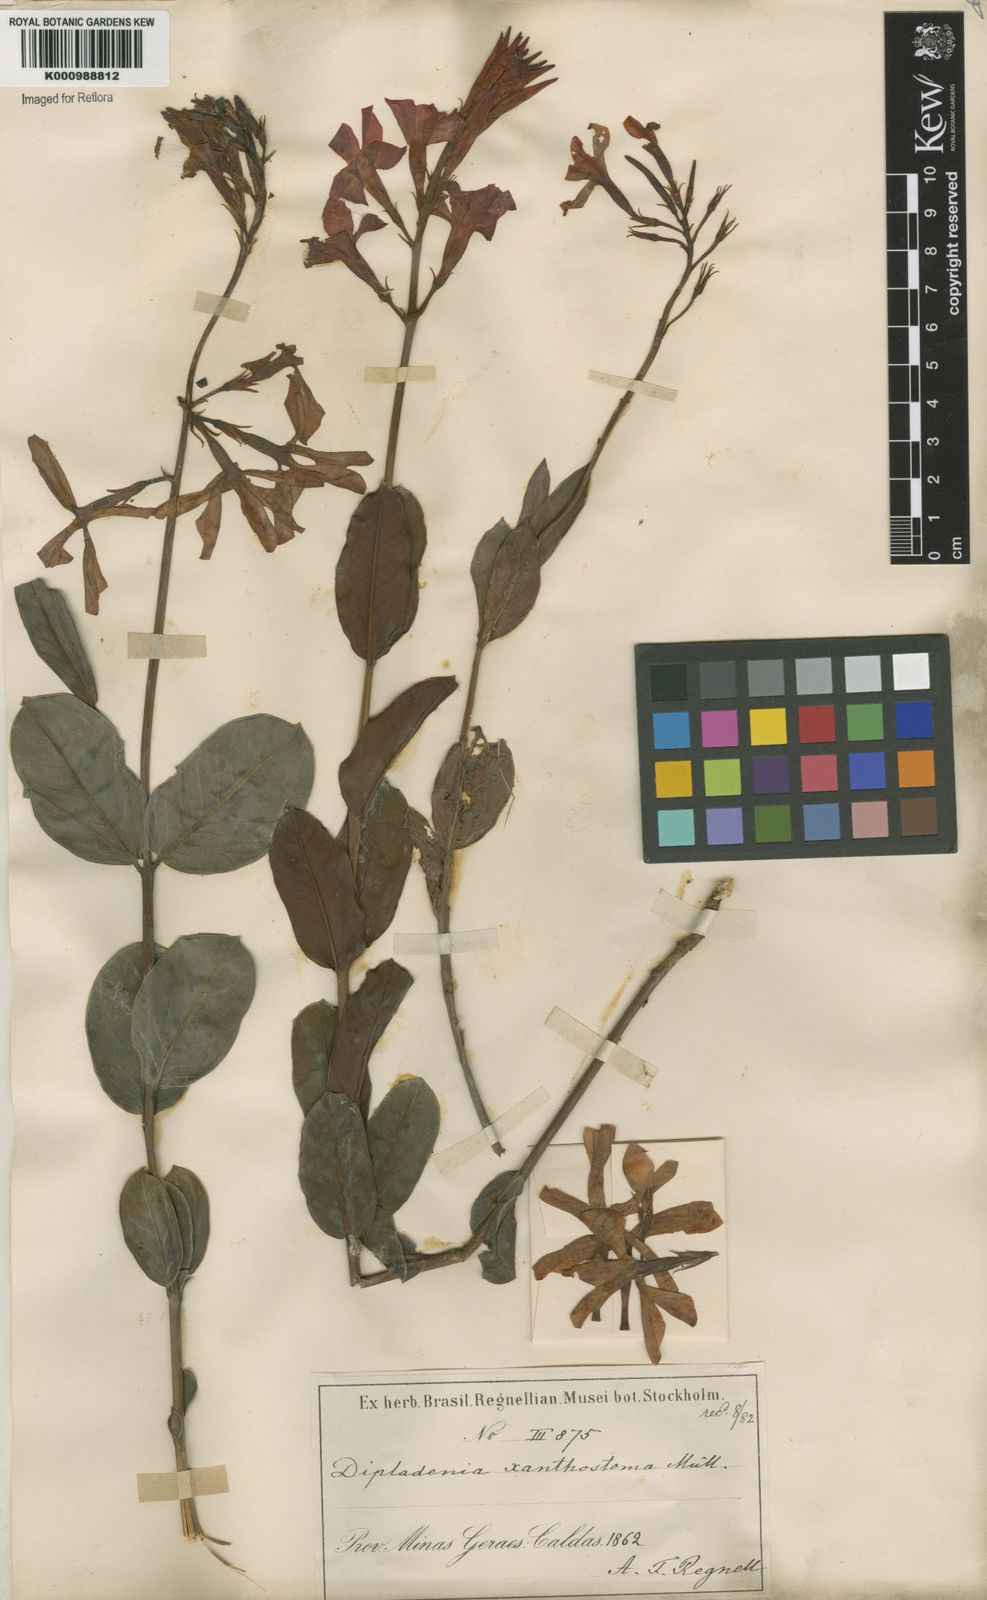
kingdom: Plantae
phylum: Tracheophyta
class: Magnoliopsida
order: Gentianales
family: Apocynaceae
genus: Mandevilla
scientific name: Mandevilla
